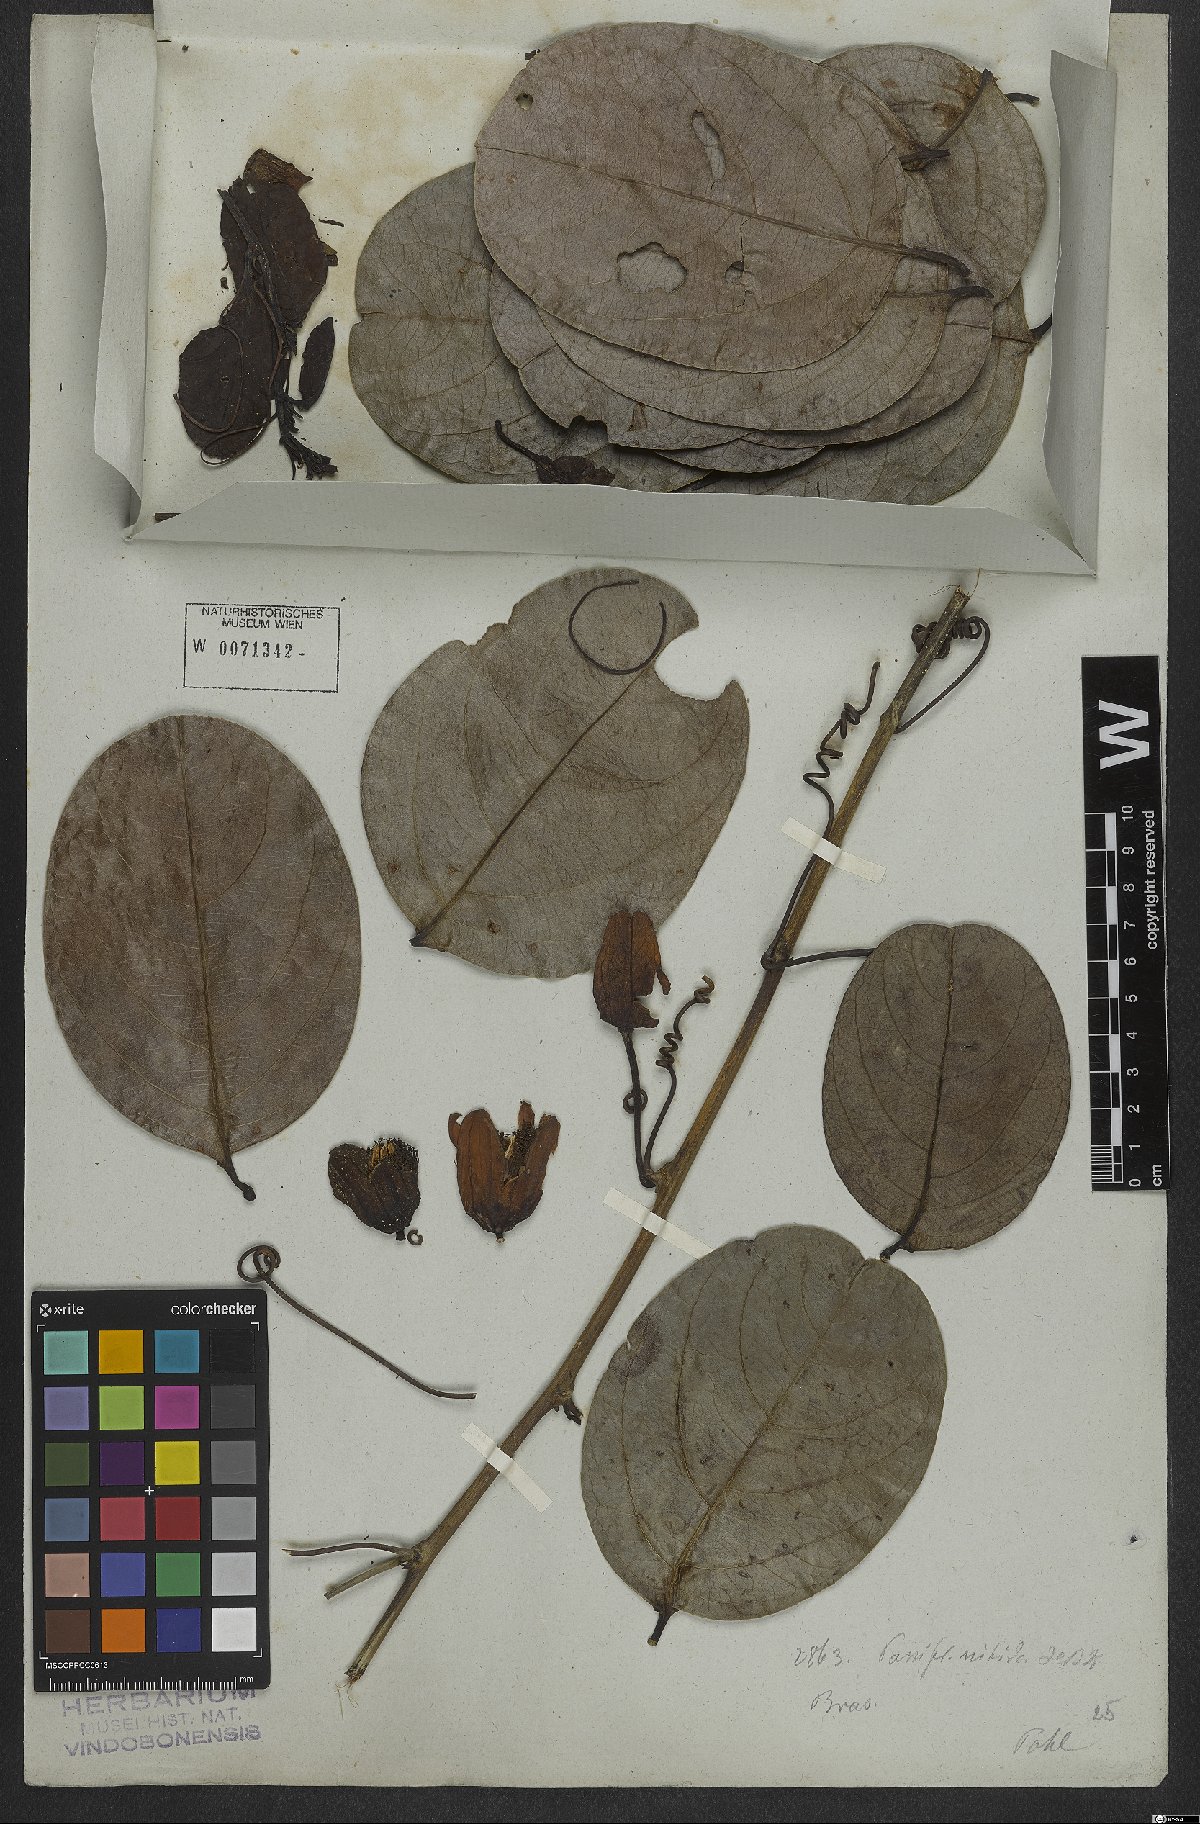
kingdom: Plantae
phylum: Tracheophyta
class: Magnoliopsida
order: Malpighiales
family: Passifloraceae
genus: Passiflora
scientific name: Passiflora nitida
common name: Bell-apple
